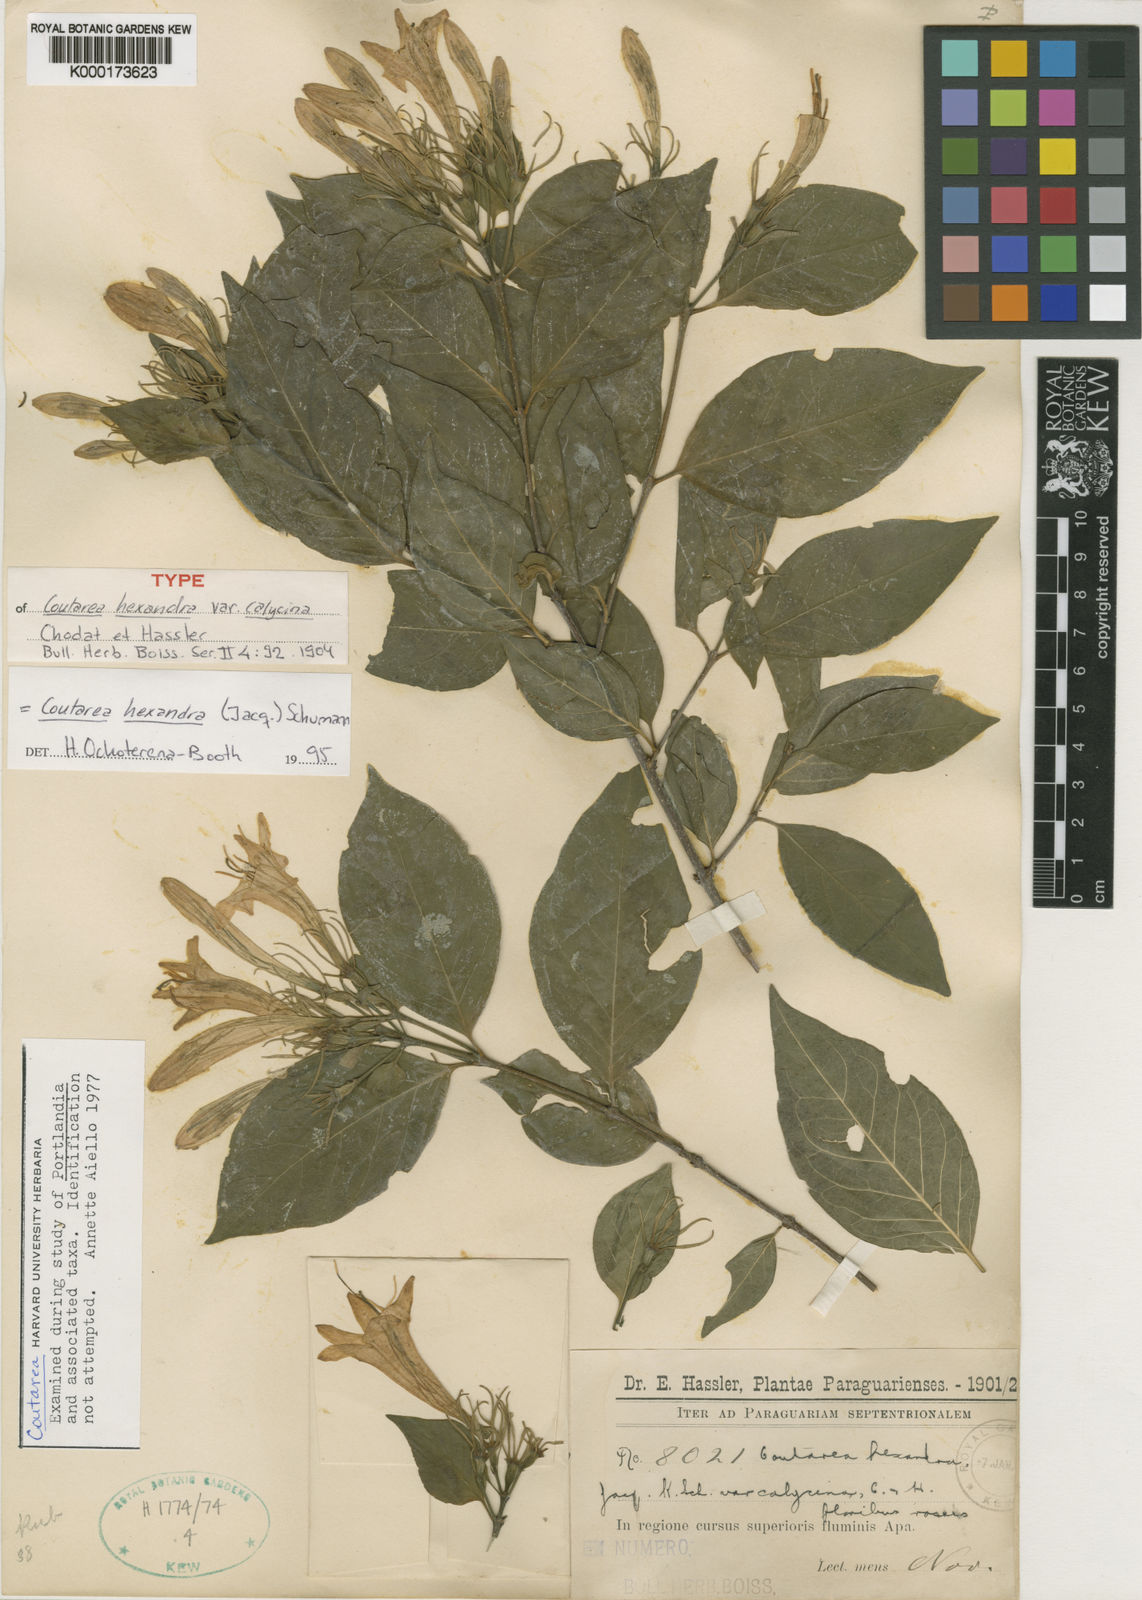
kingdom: Plantae
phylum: Tracheophyta
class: Magnoliopsida
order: Gentianales
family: Rubiaceae
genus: Coutarea
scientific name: Coutarea hexandra
